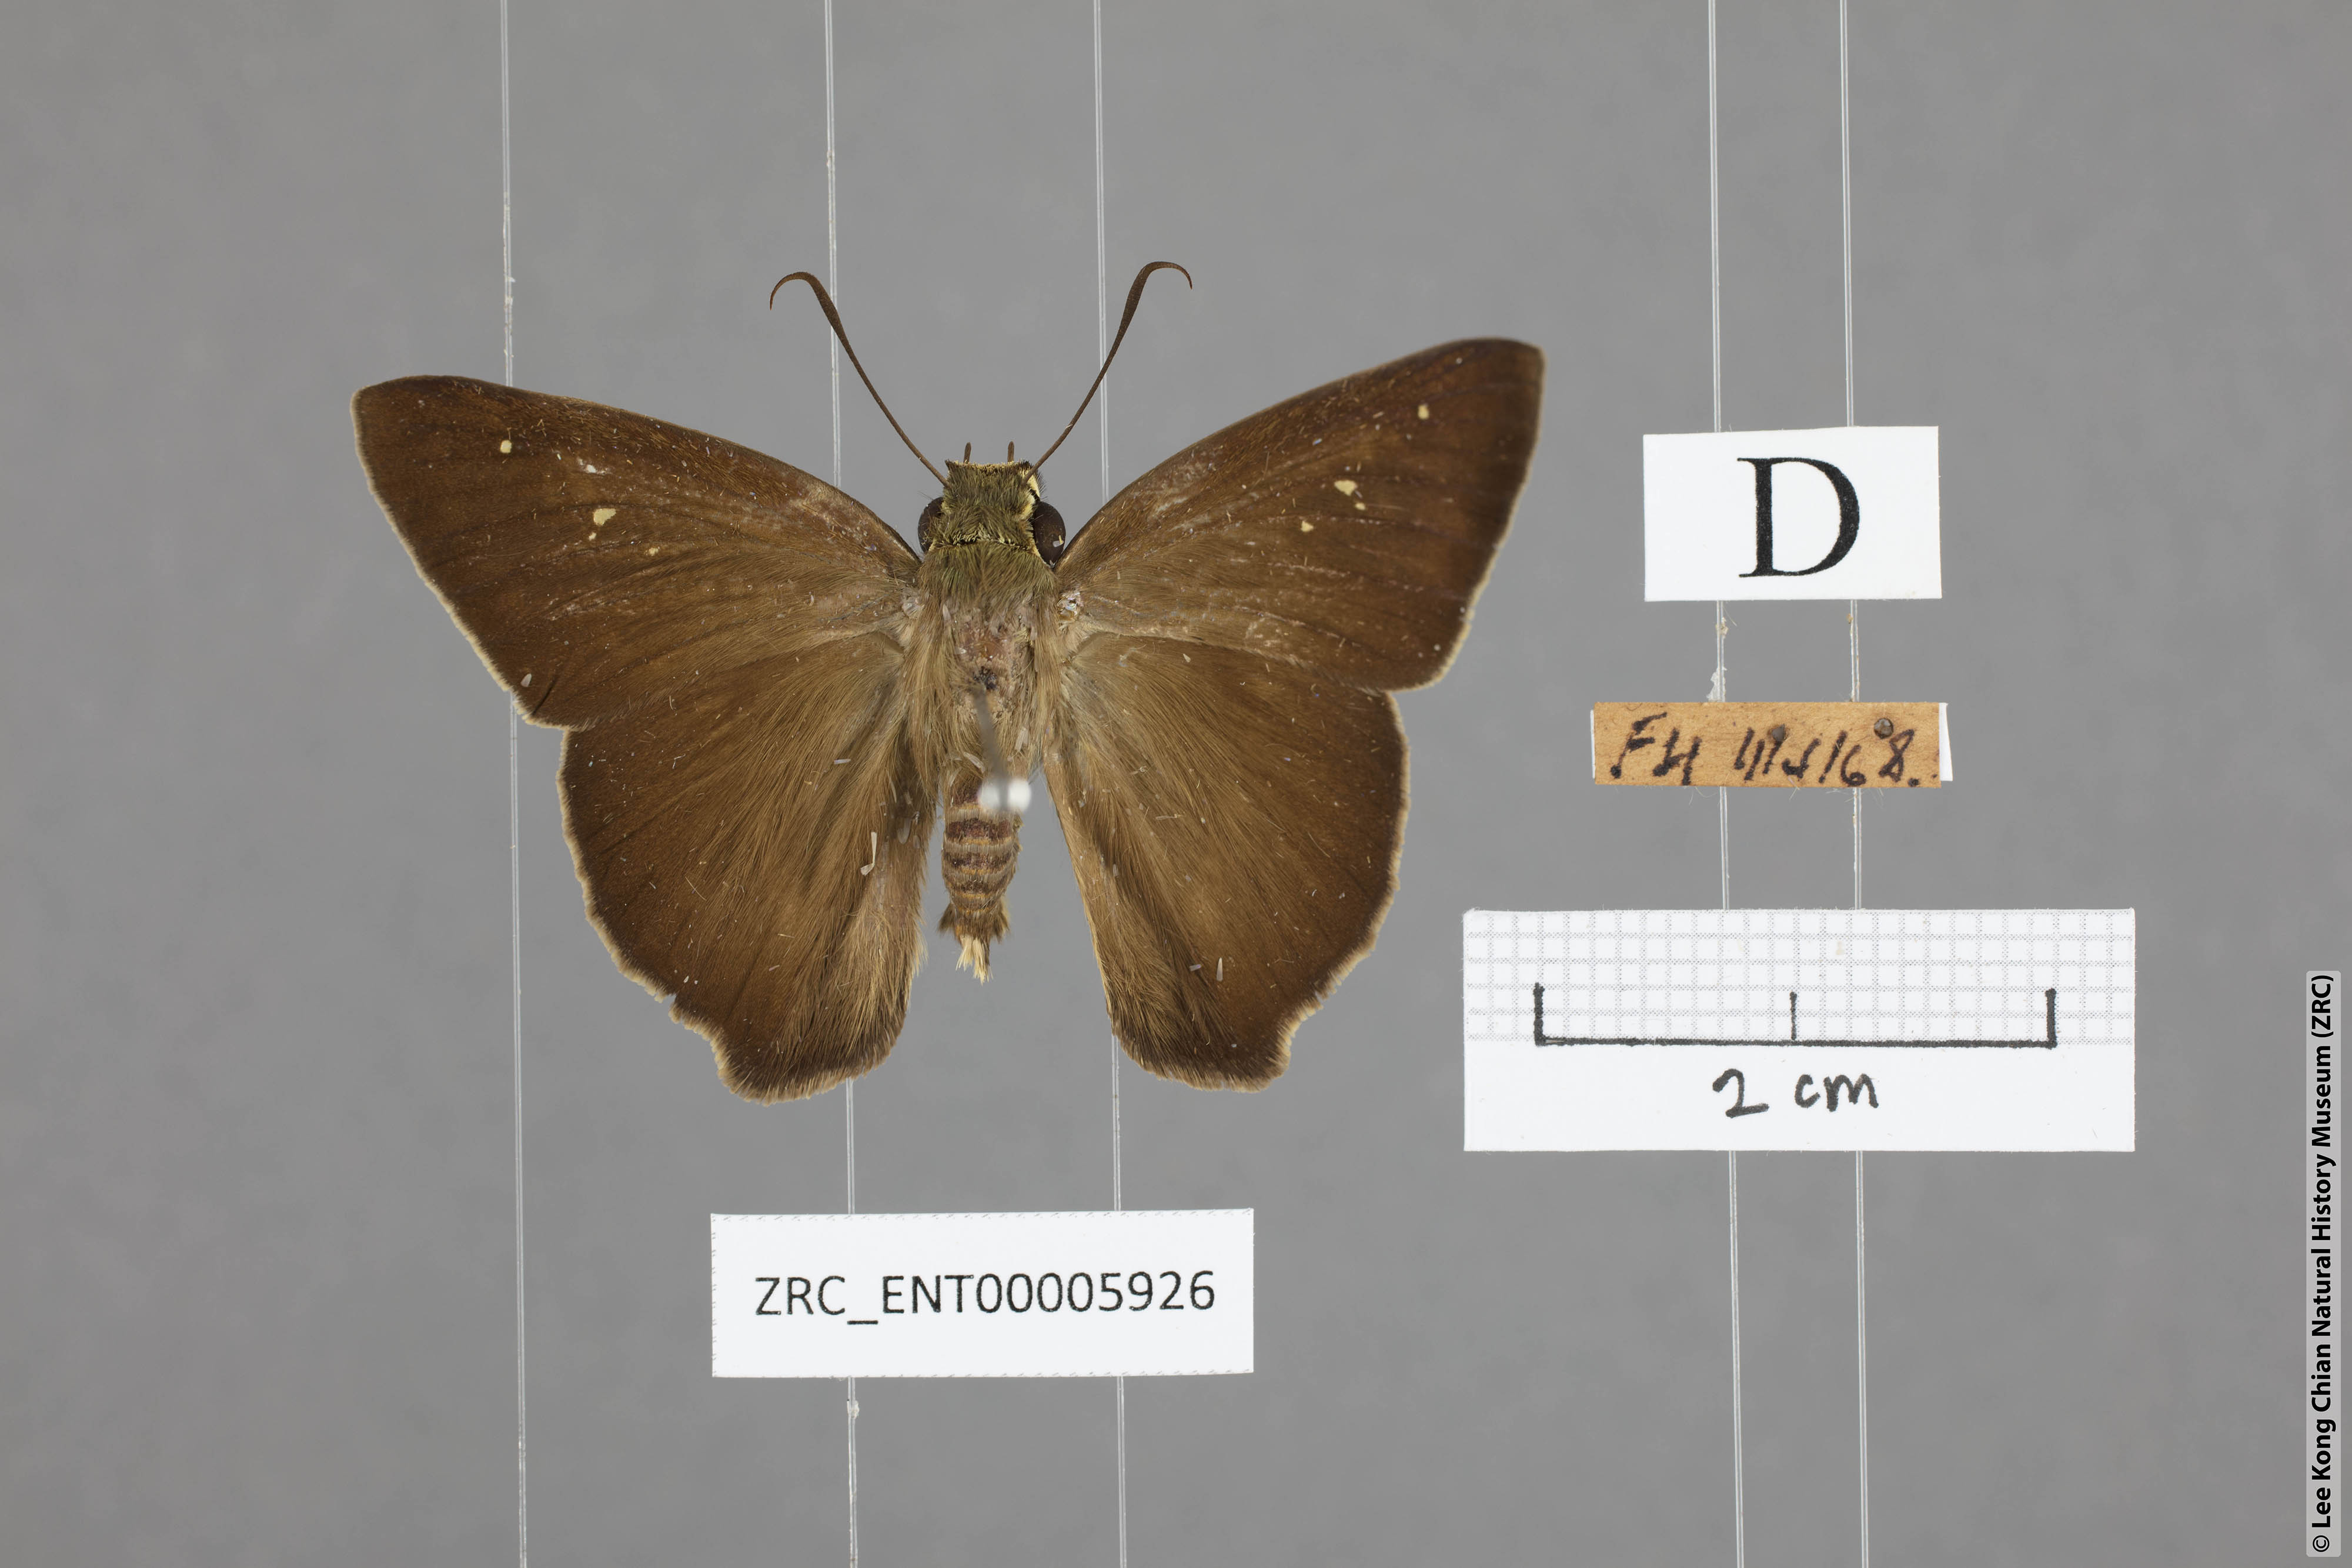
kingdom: Animalia
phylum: Arthropoda
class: Insecta
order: Lepidoptera
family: Hesperiidae
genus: Hasora
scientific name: Hasora vitta
